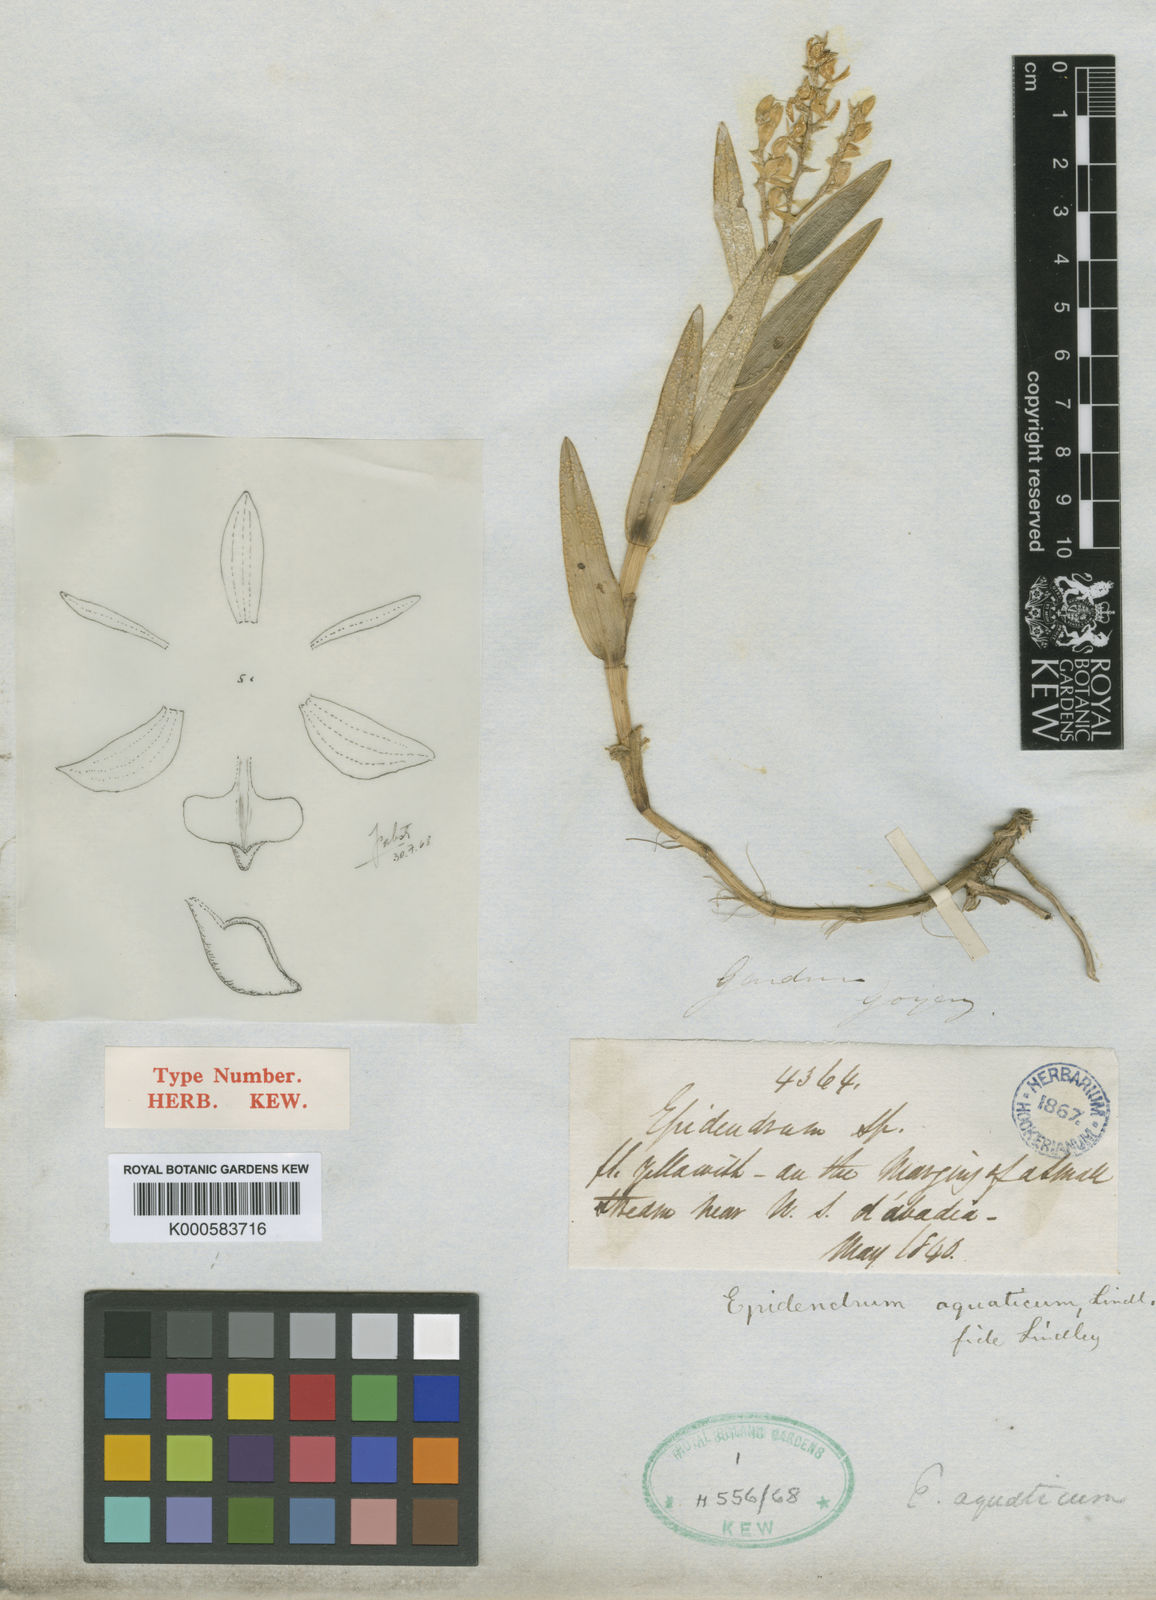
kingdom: Plantae
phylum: Tracheophyta
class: Liliopsida
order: Asparagales
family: Orchidaceae
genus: Epidendrum
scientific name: Epidendrum dendrobioides
